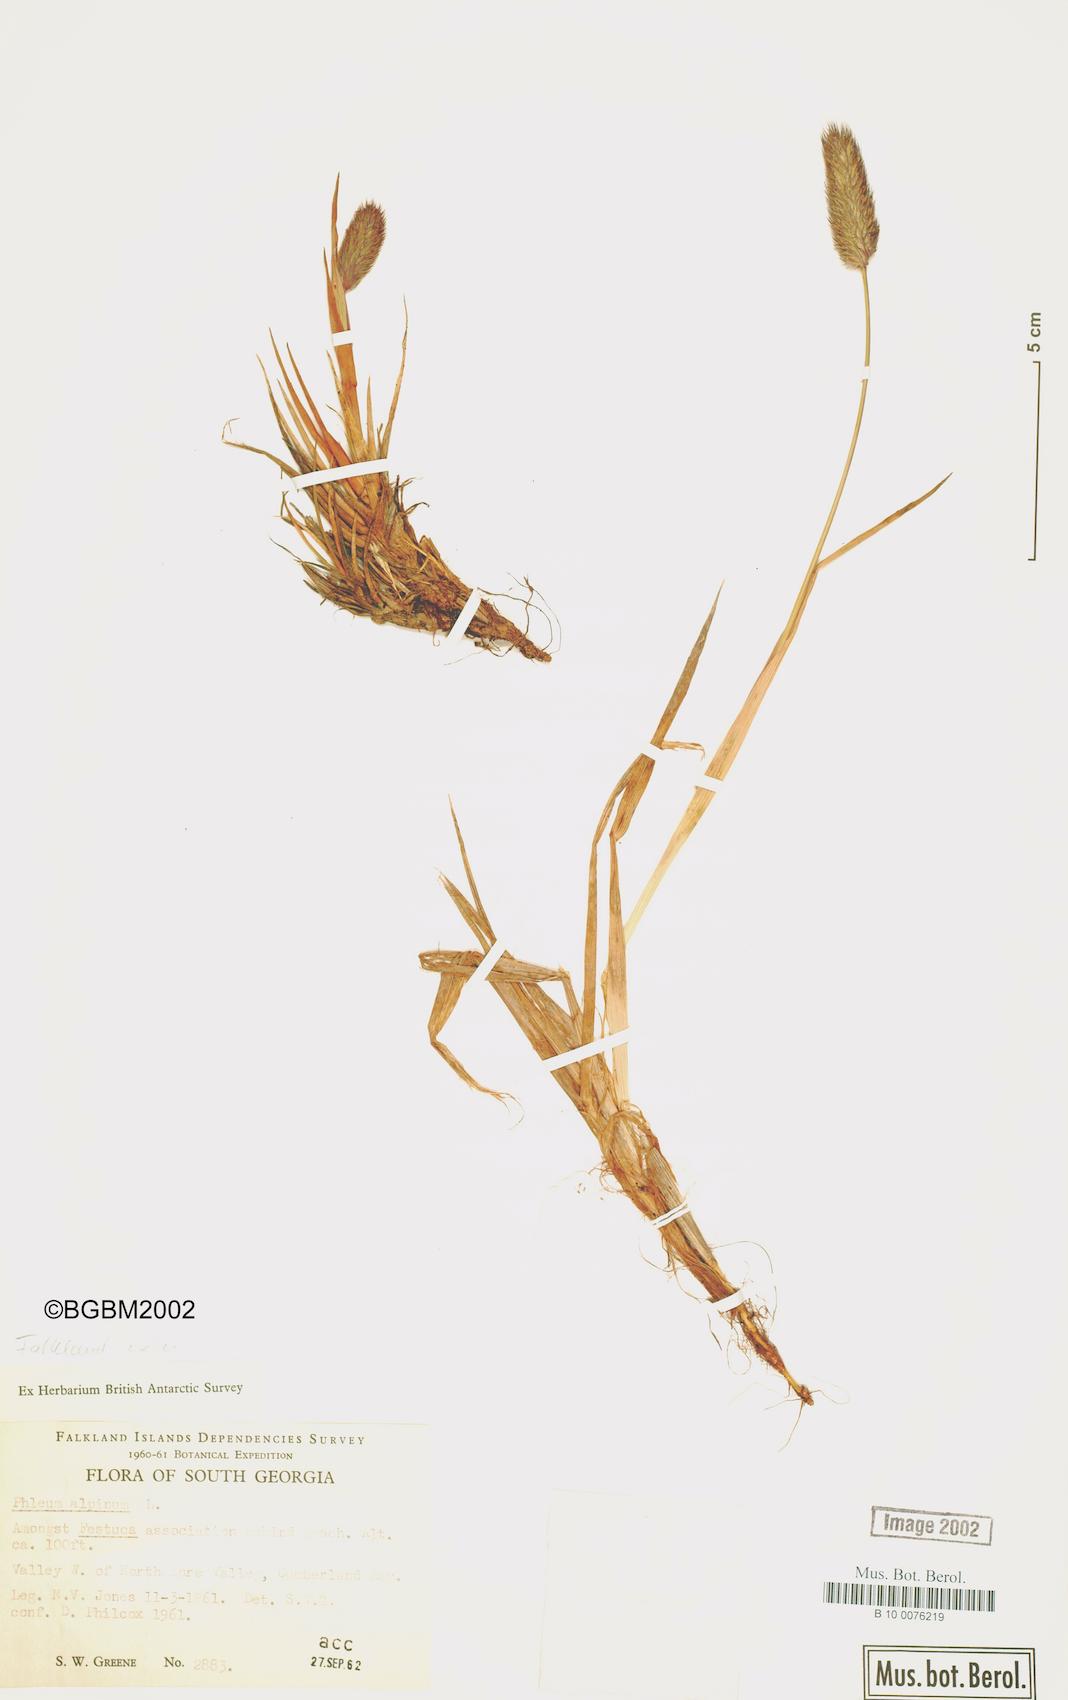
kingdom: Plantae
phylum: Tracheophyta
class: Liliopsida
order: Poales
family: Poaceae
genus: Phleum
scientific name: Phleum alpinum
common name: Alpine cat's-tail
